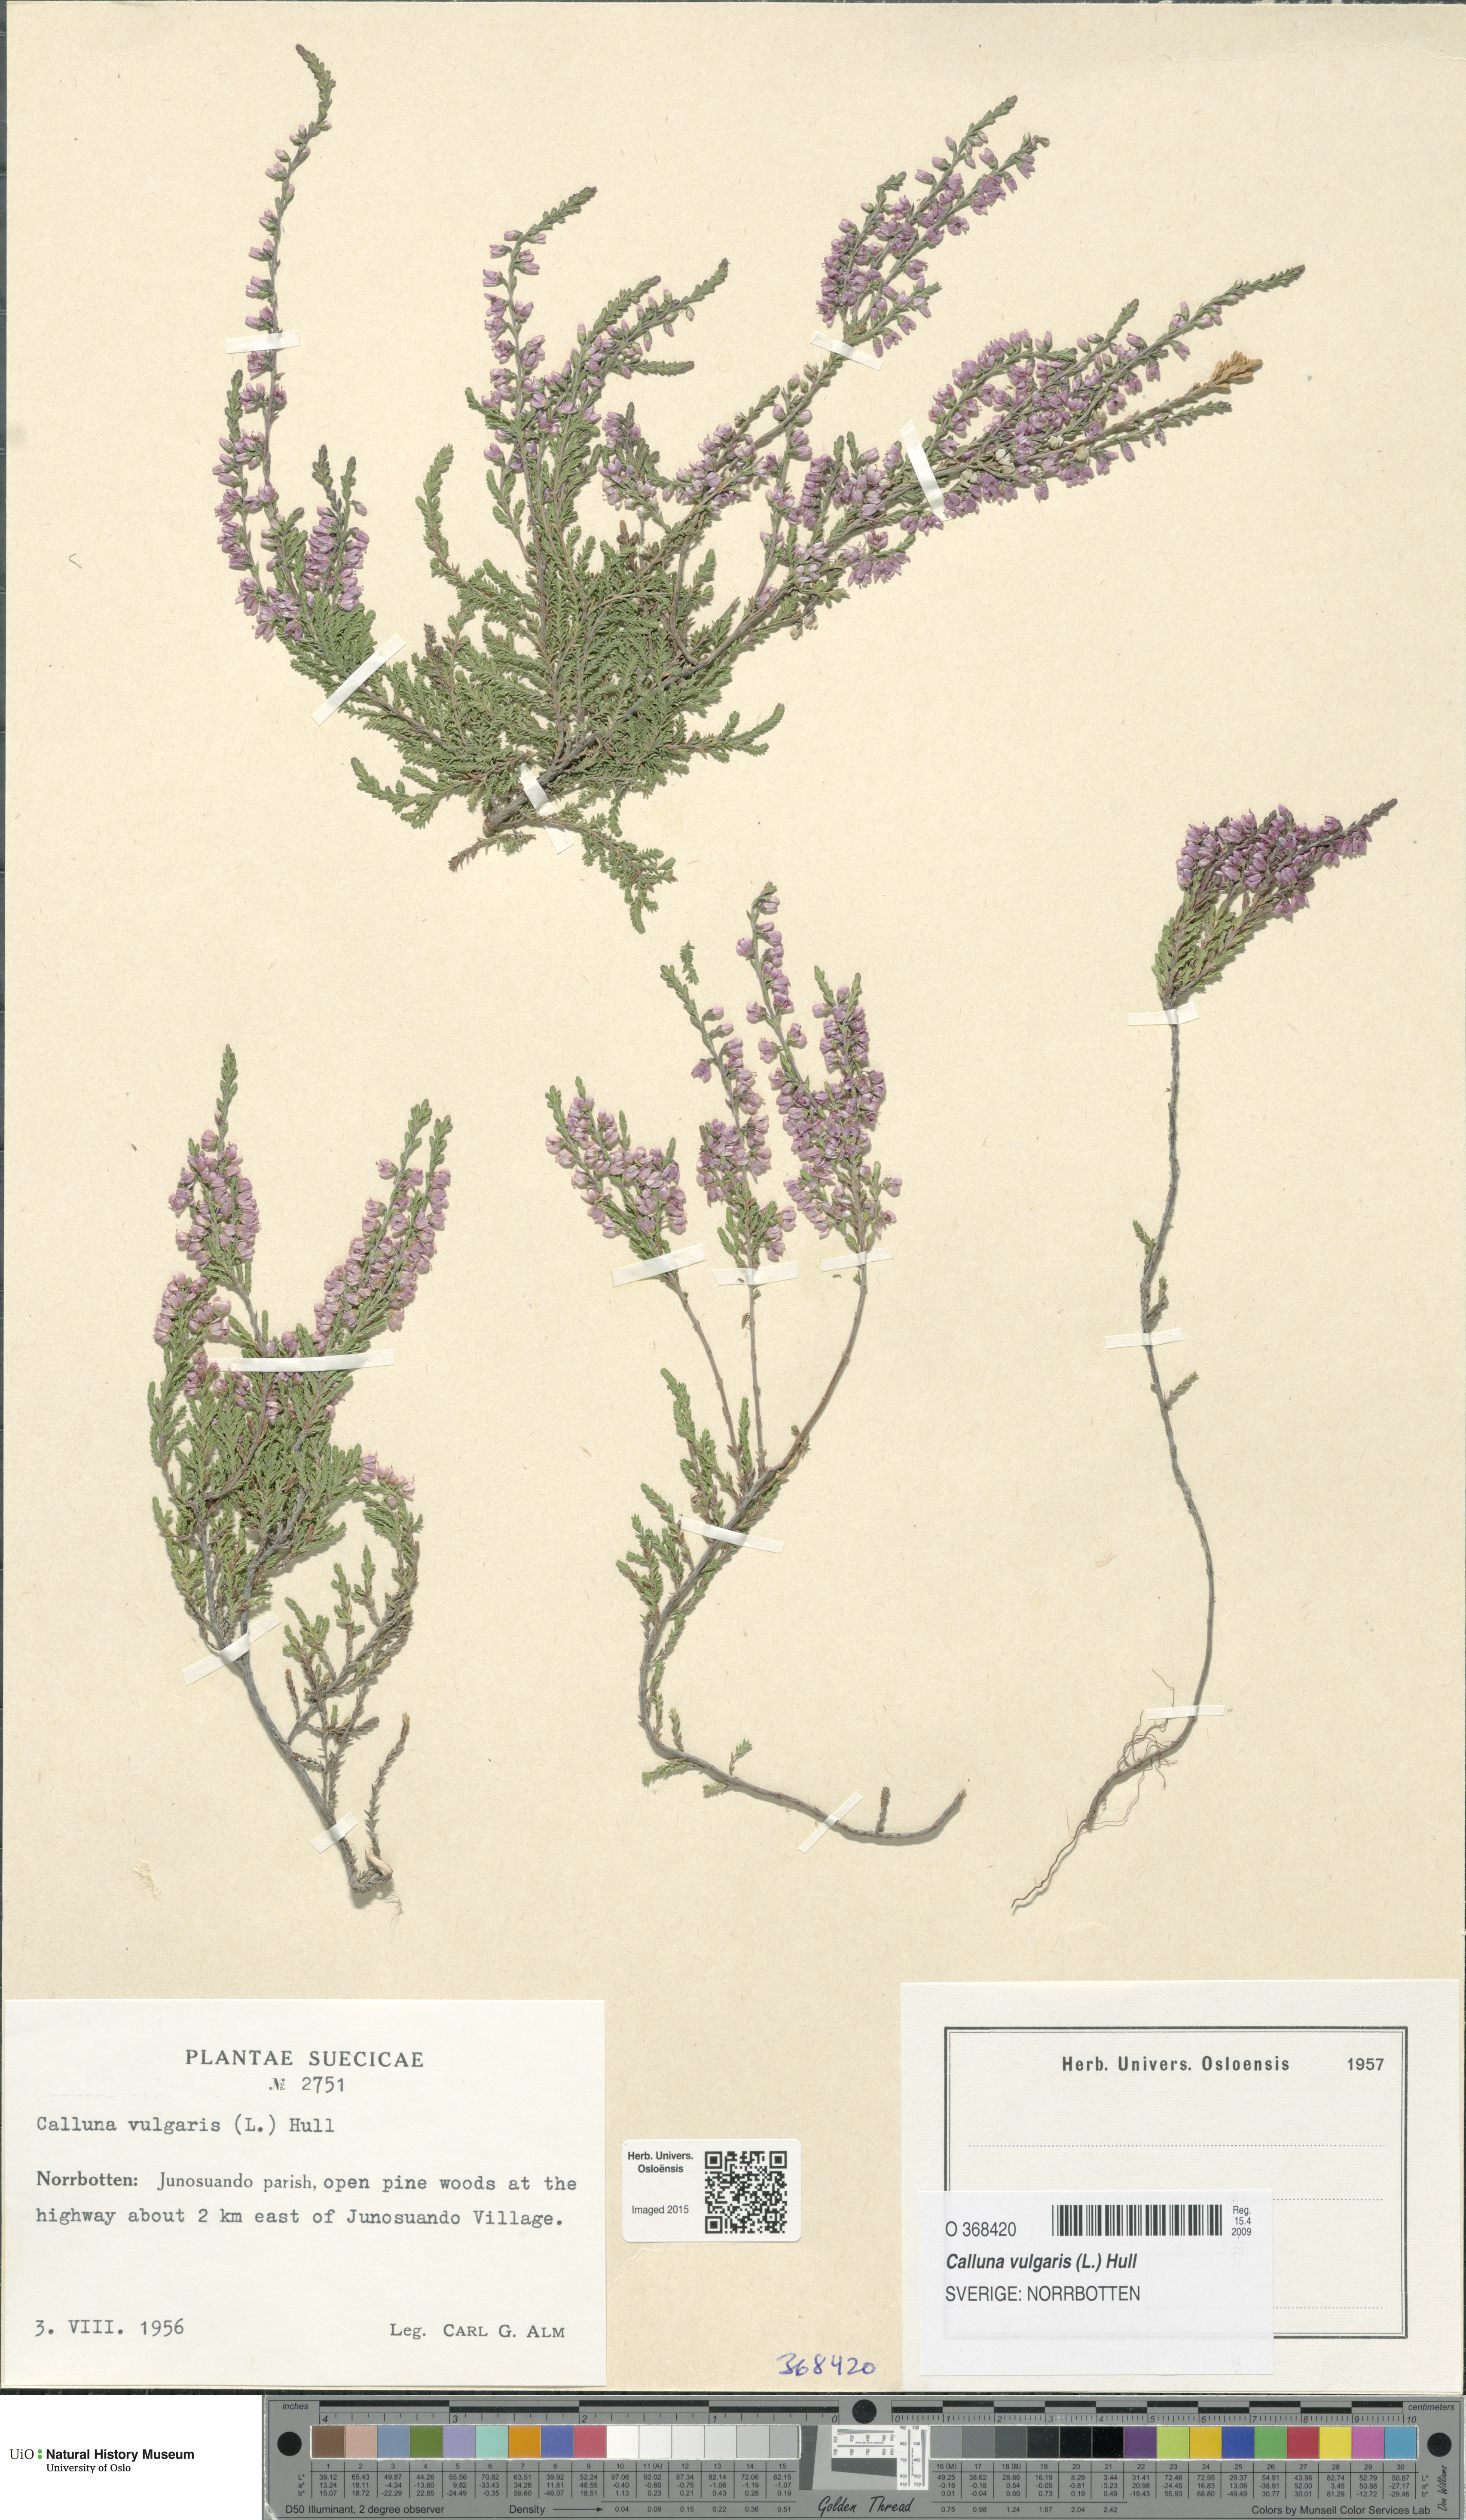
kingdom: Plantae
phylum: Tracheophyta
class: Magnoliopsida
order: Ericales
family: Ericaceae
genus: Calluna
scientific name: Calluna vulgaris
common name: Heather
